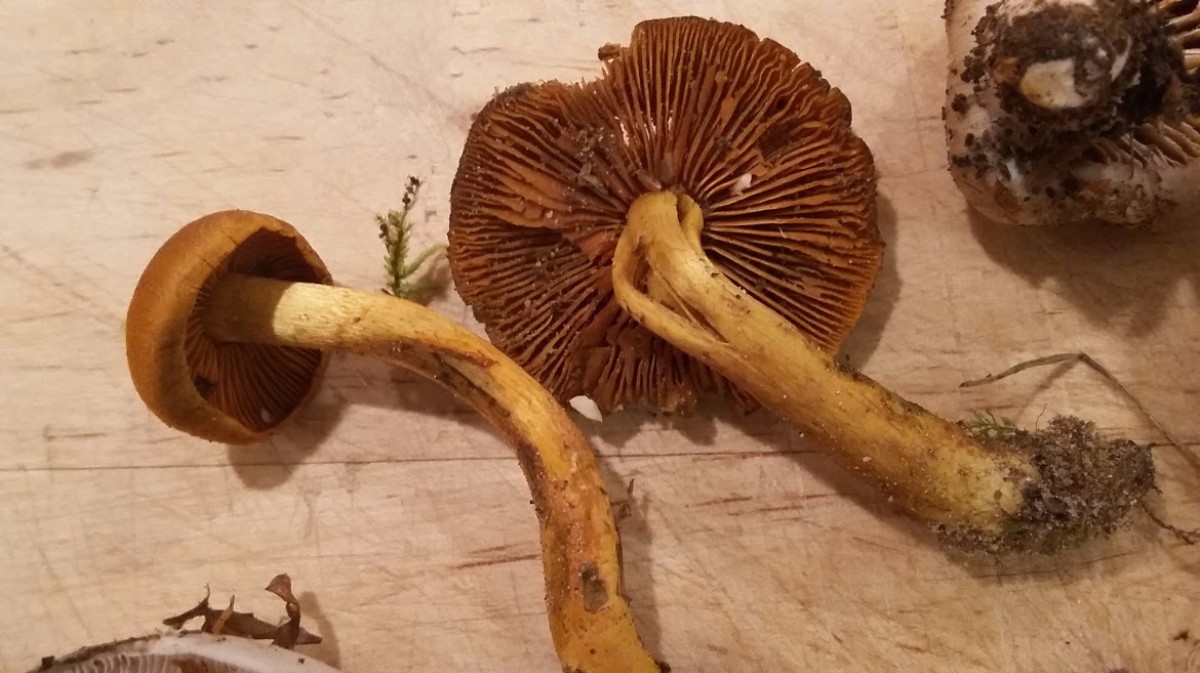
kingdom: Fungi
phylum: Basidiomycota
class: Agaricomycetes
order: Agaricales
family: Cortinariaceae
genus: Cortinarius
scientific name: Cortinarius
